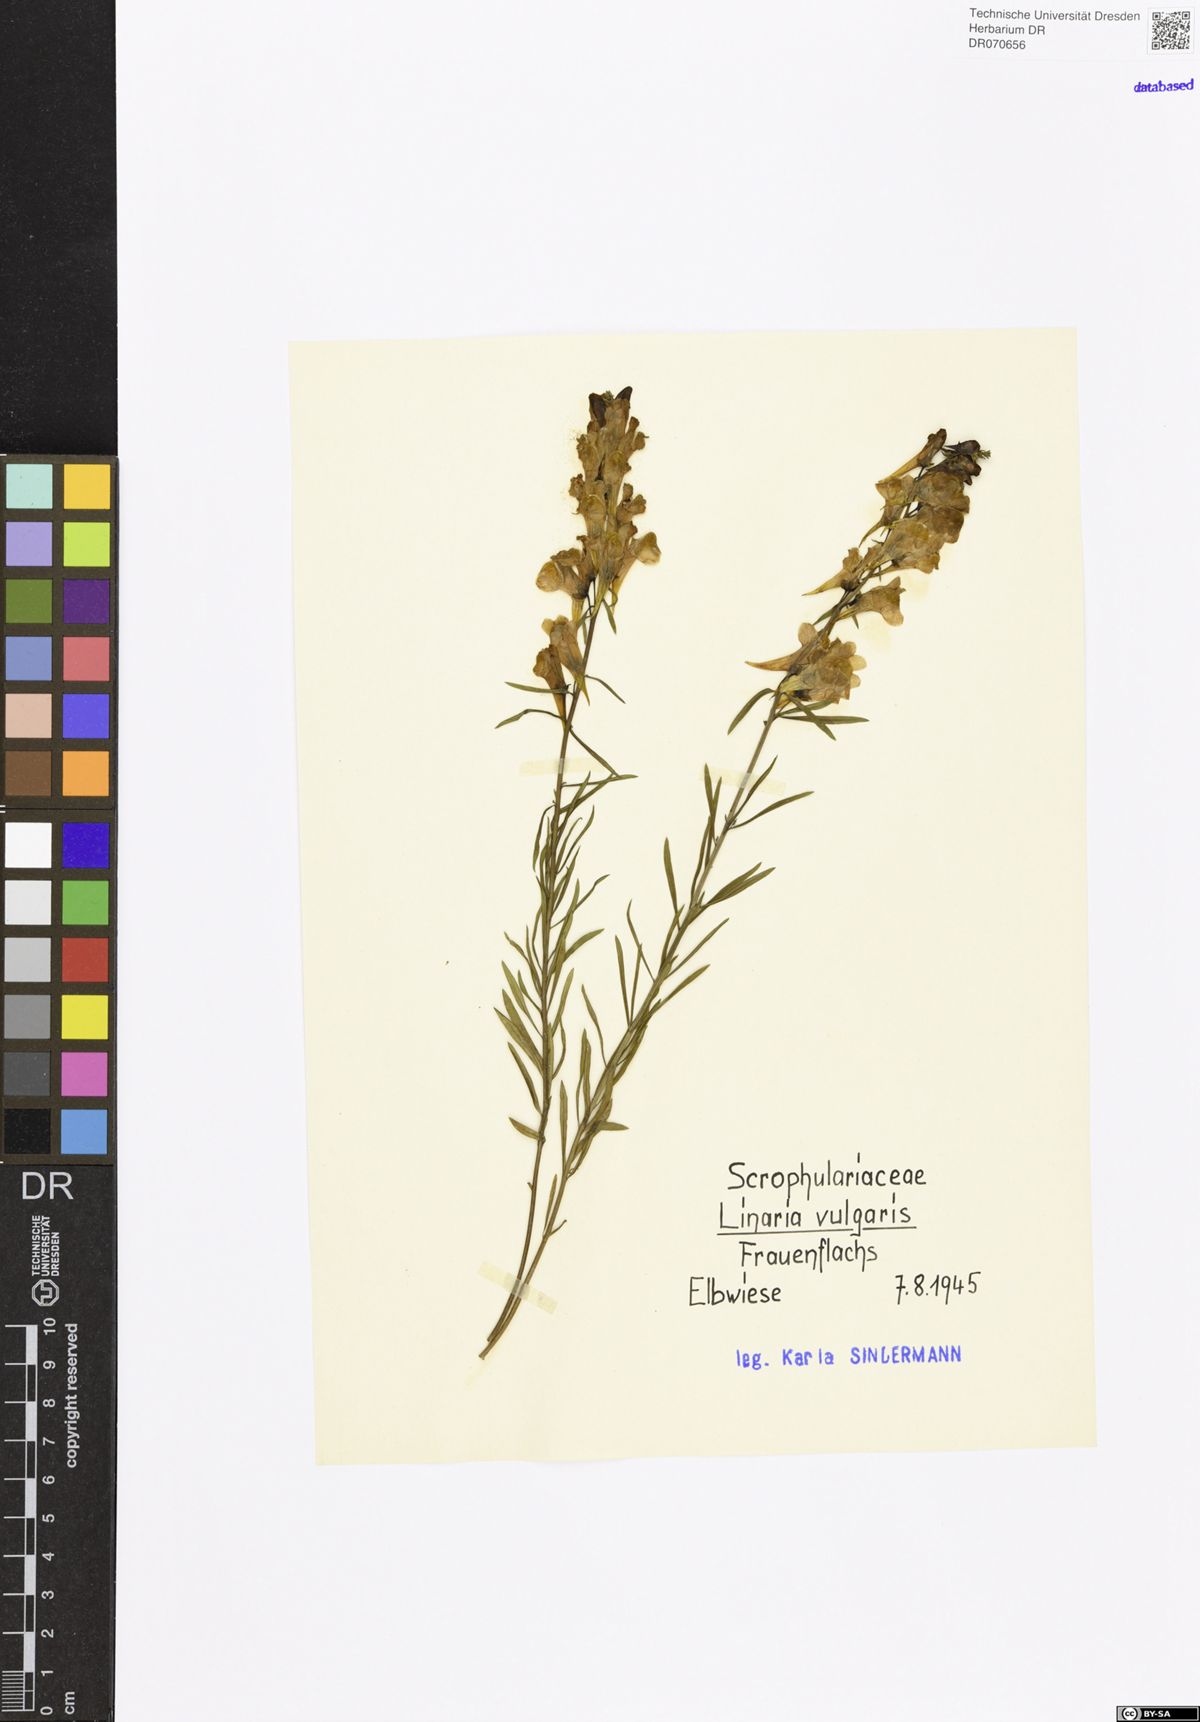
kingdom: Plantae
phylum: Tracheophyta
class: Magnoliopsida
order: Lamiales
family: Plantaginaceae
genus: Linaria
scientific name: Linaria vulgaris
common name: Butter and eggs
